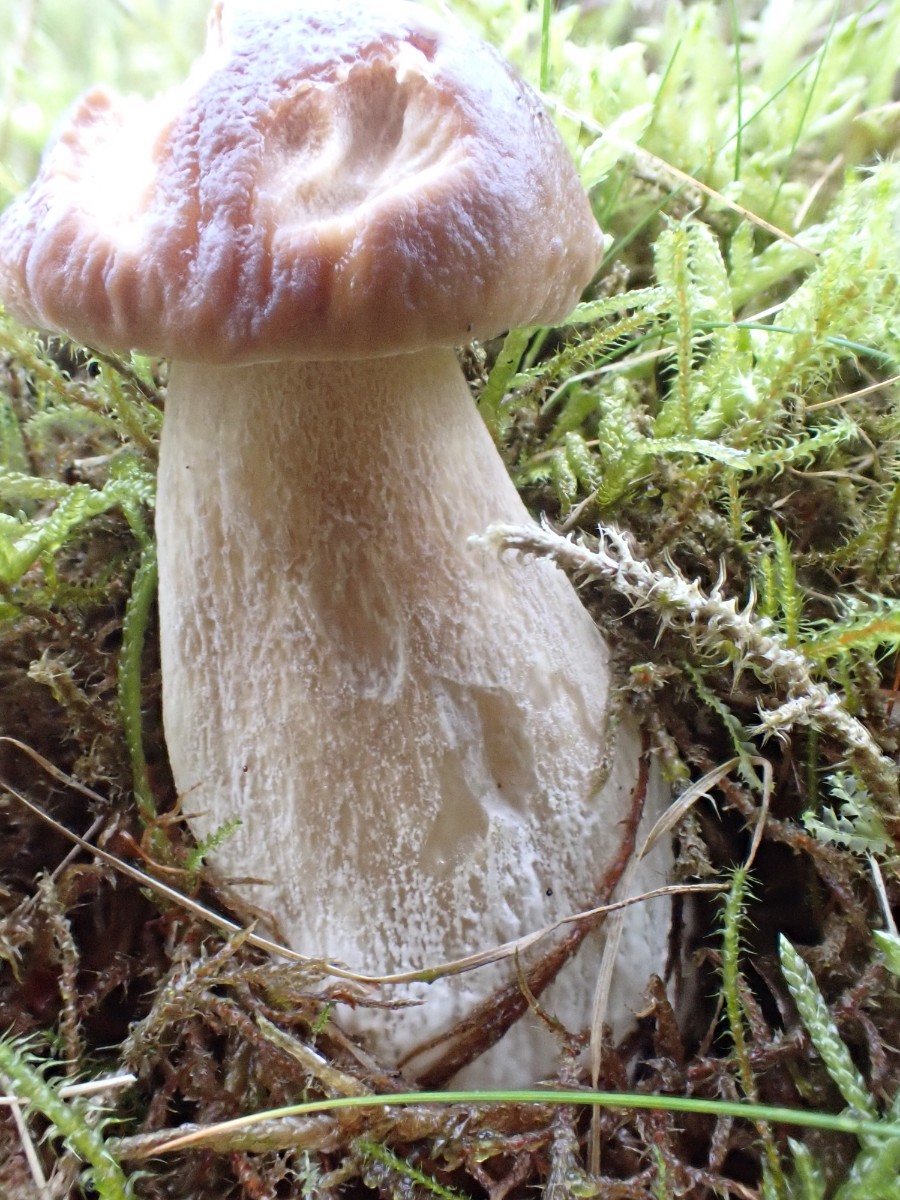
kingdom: Fungi
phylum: Basidiomycota
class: Agaricomycetes
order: Boletales
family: Boletaceae
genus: Boletus
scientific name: Boletus edulis
